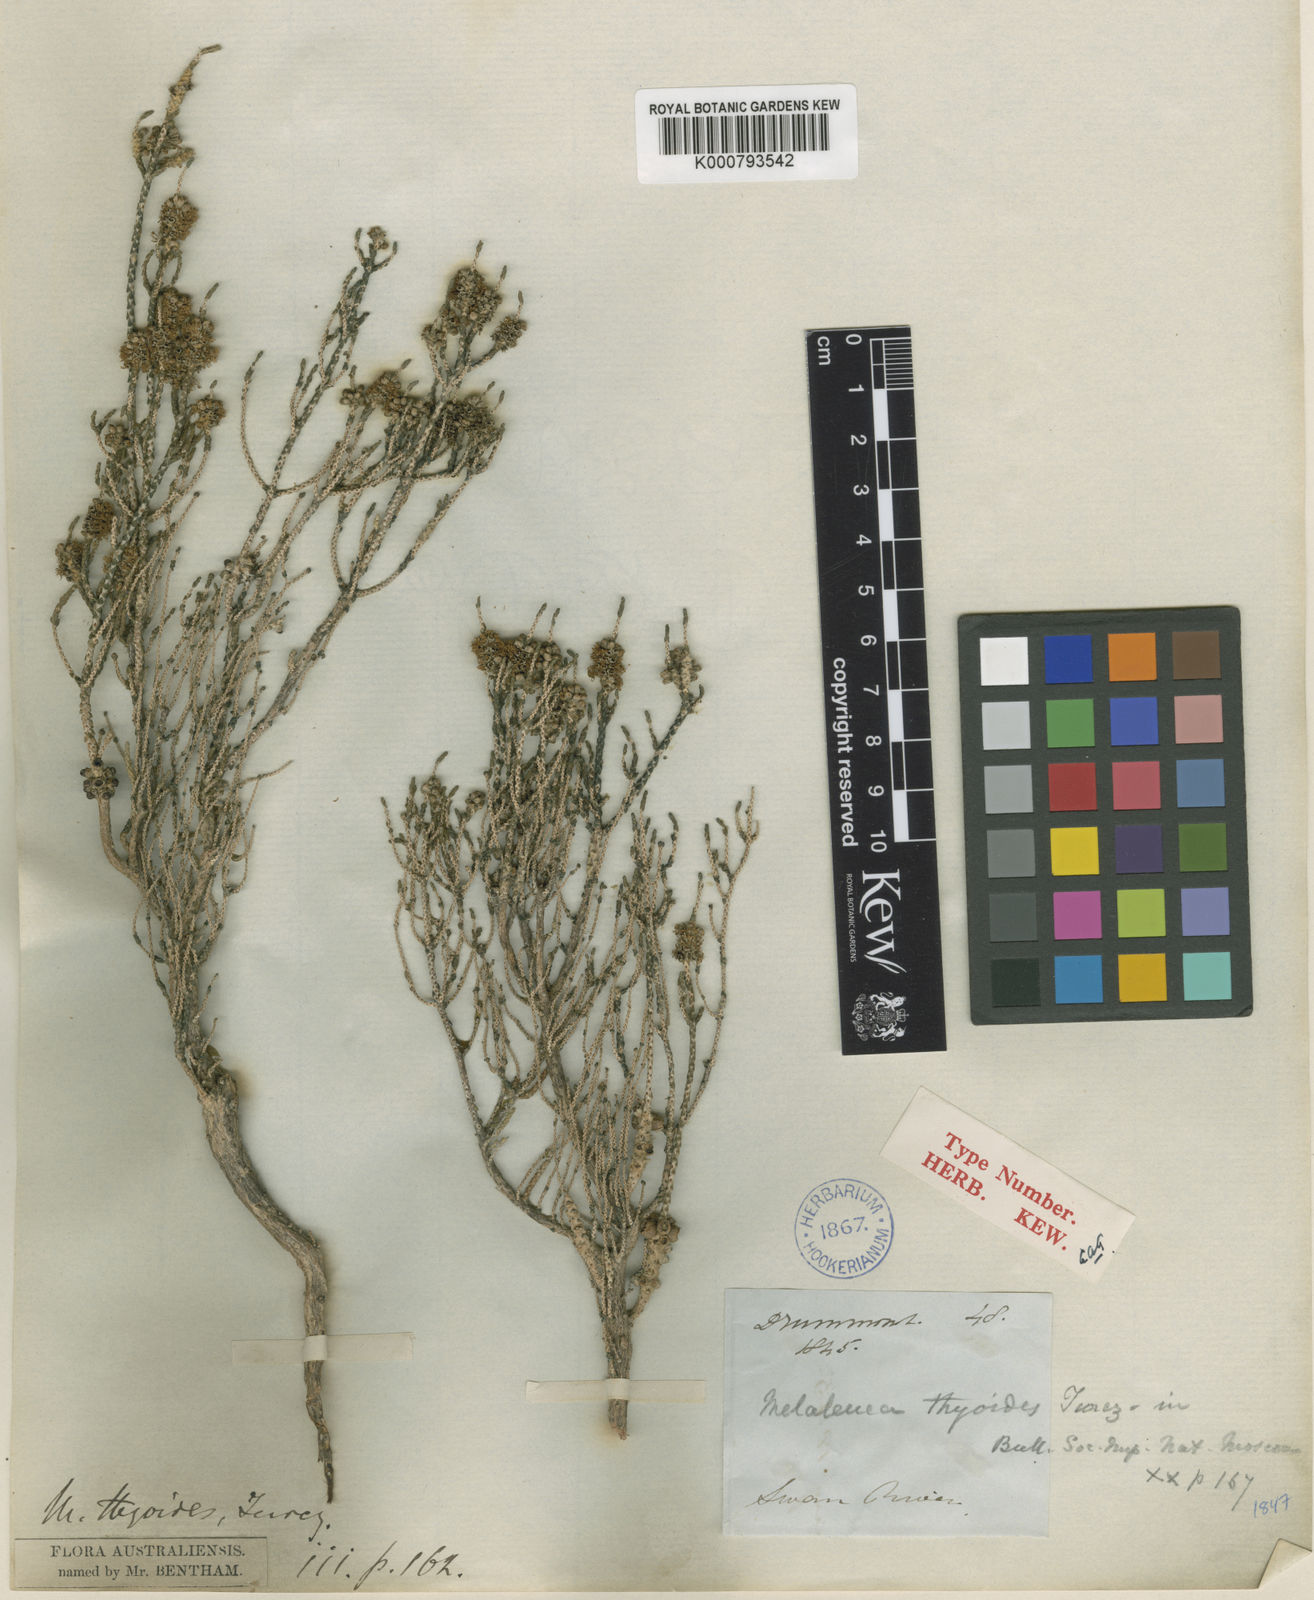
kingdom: Plantae
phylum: Tracheophyta
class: Magnoliopsida
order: Myrtales
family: Myrtaceae
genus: Melaleuca
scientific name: Melaleuca thyoides
